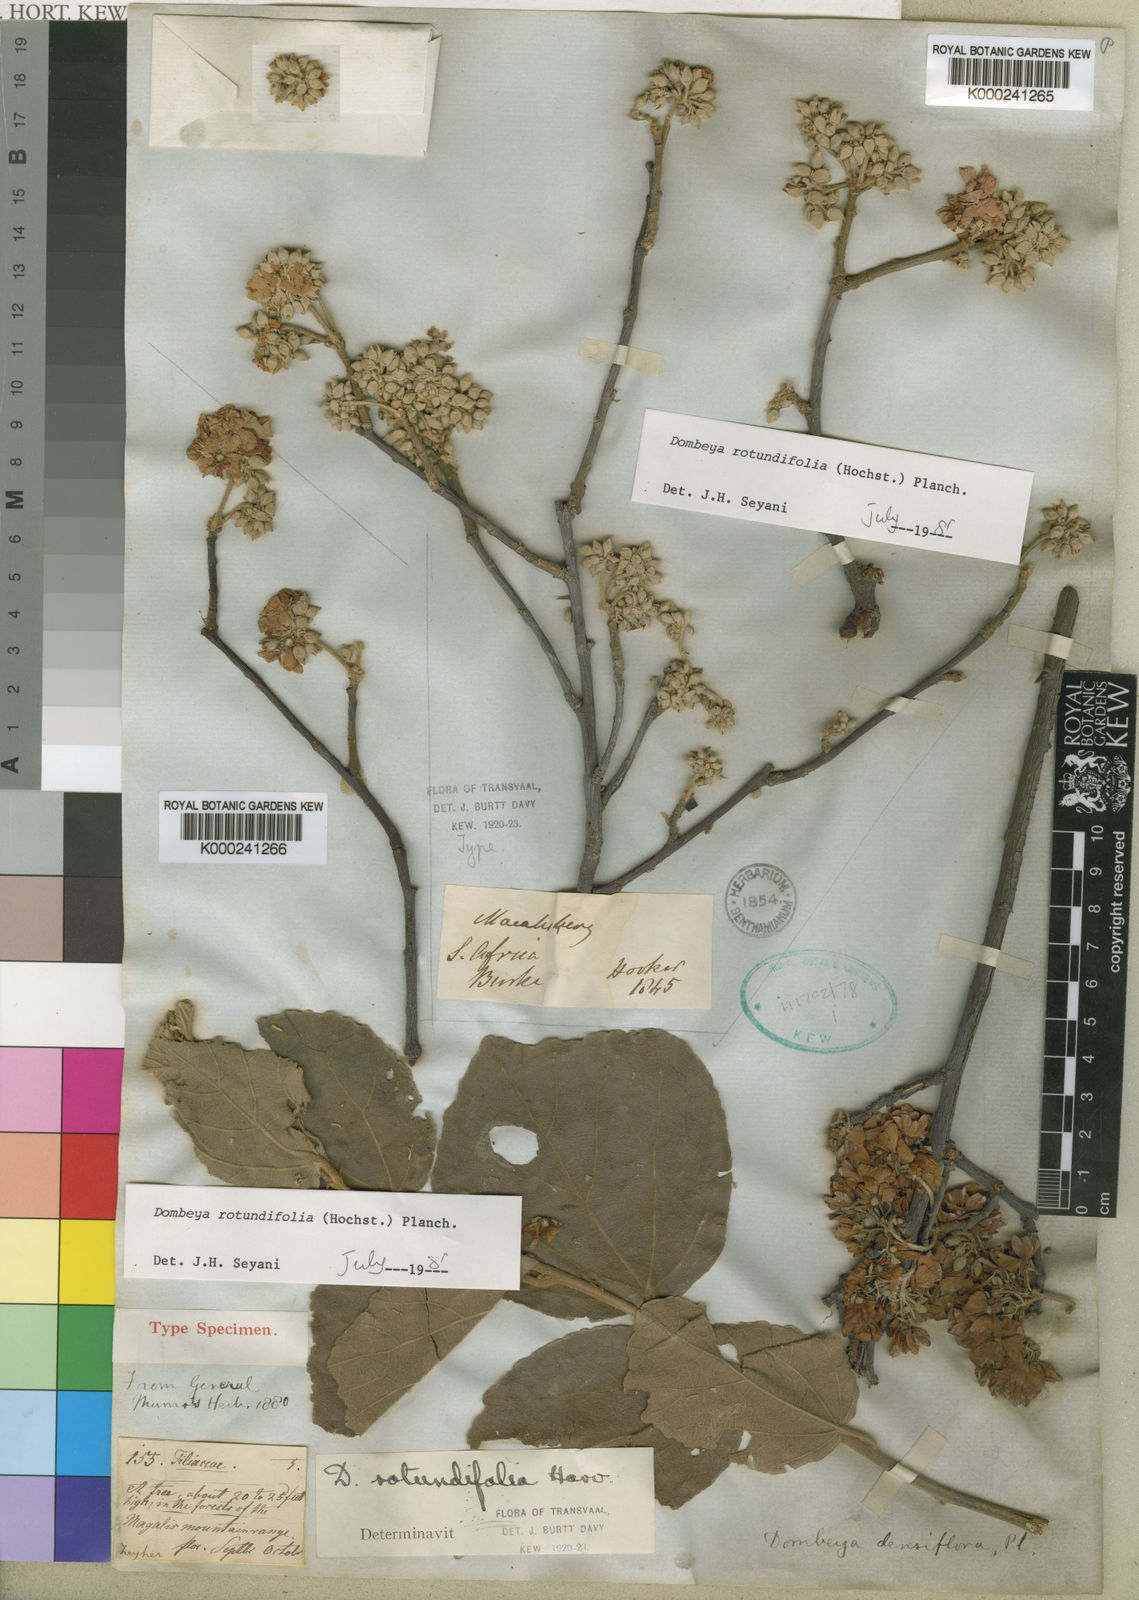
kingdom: Plantae
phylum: Tracheophyta
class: Magnoliopsida
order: Malvales
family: Malvaceae
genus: Dombeya
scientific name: Dombeya rotundifolia
